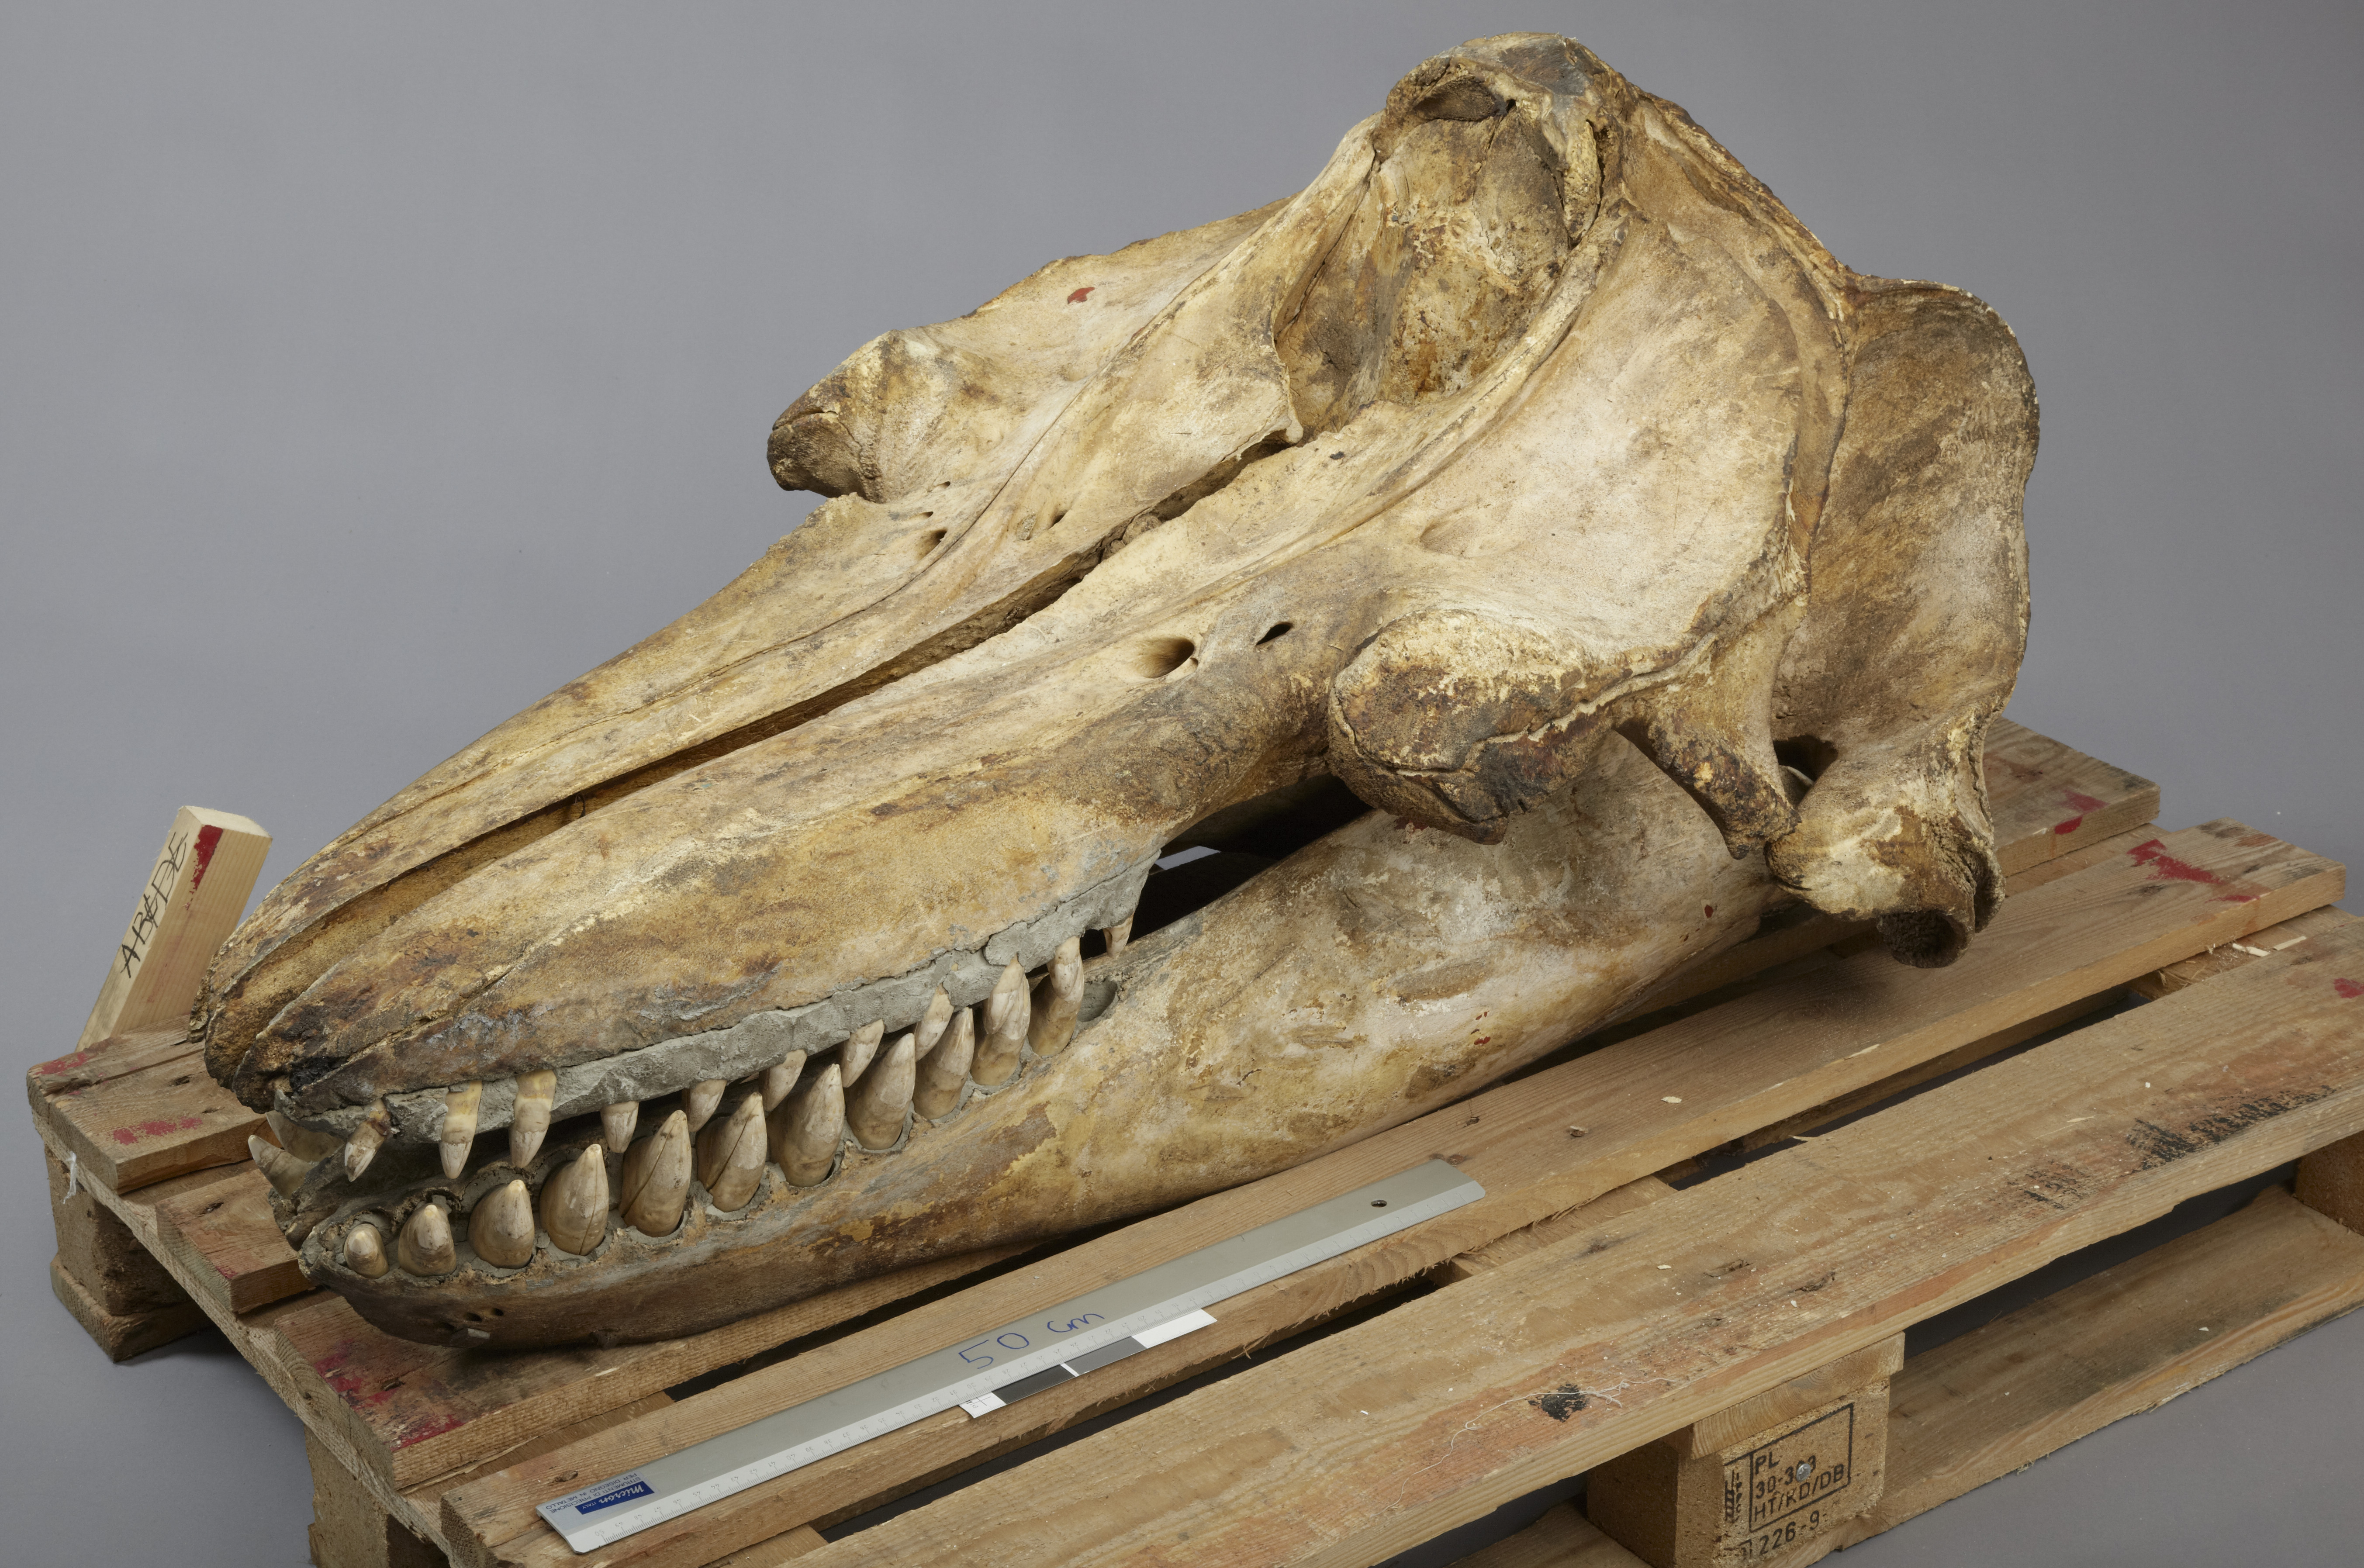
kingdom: Animalia
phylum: Chordata
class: Mammalia
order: Cetacea
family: Delphinidae
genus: Orcinus
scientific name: Orcinus orca
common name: Killer whale
